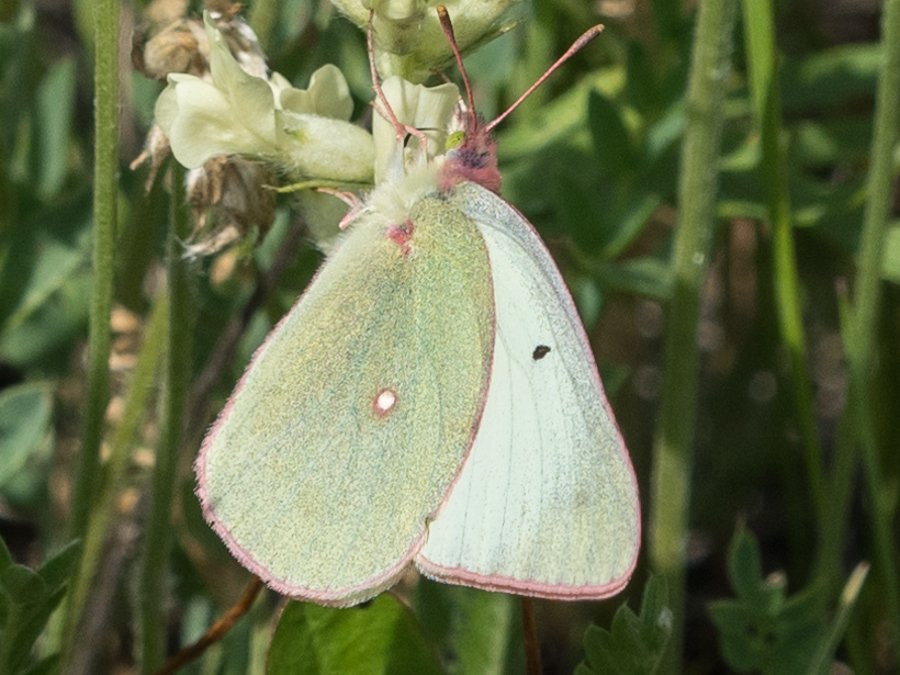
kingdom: Animalia
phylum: Arthropoda
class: Insecta
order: Lepidoptera
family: Pieridae
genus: Colias
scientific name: Colias christina
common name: Christina Sulphur
